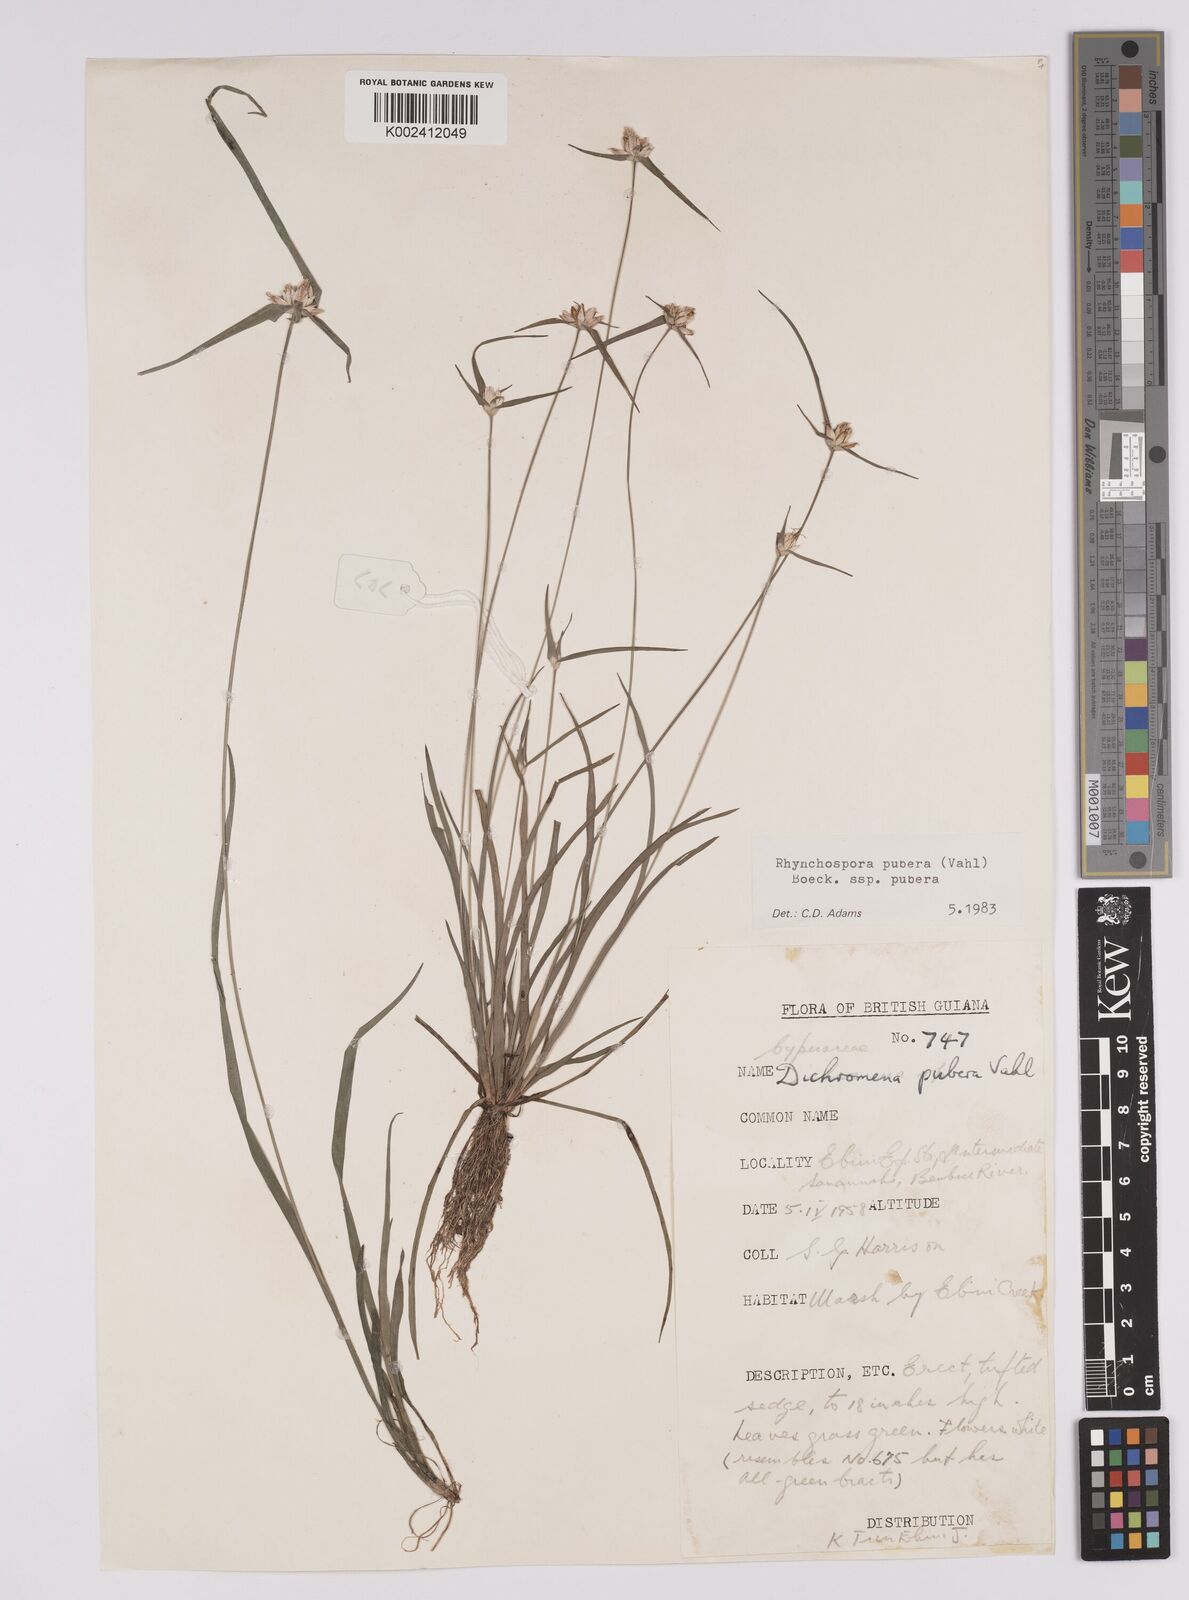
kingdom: Plantae
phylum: Tracheophyta
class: Liliopsida
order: Poales
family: Cyperaceae
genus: Rhynchospora
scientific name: Rhynchospora pubera
